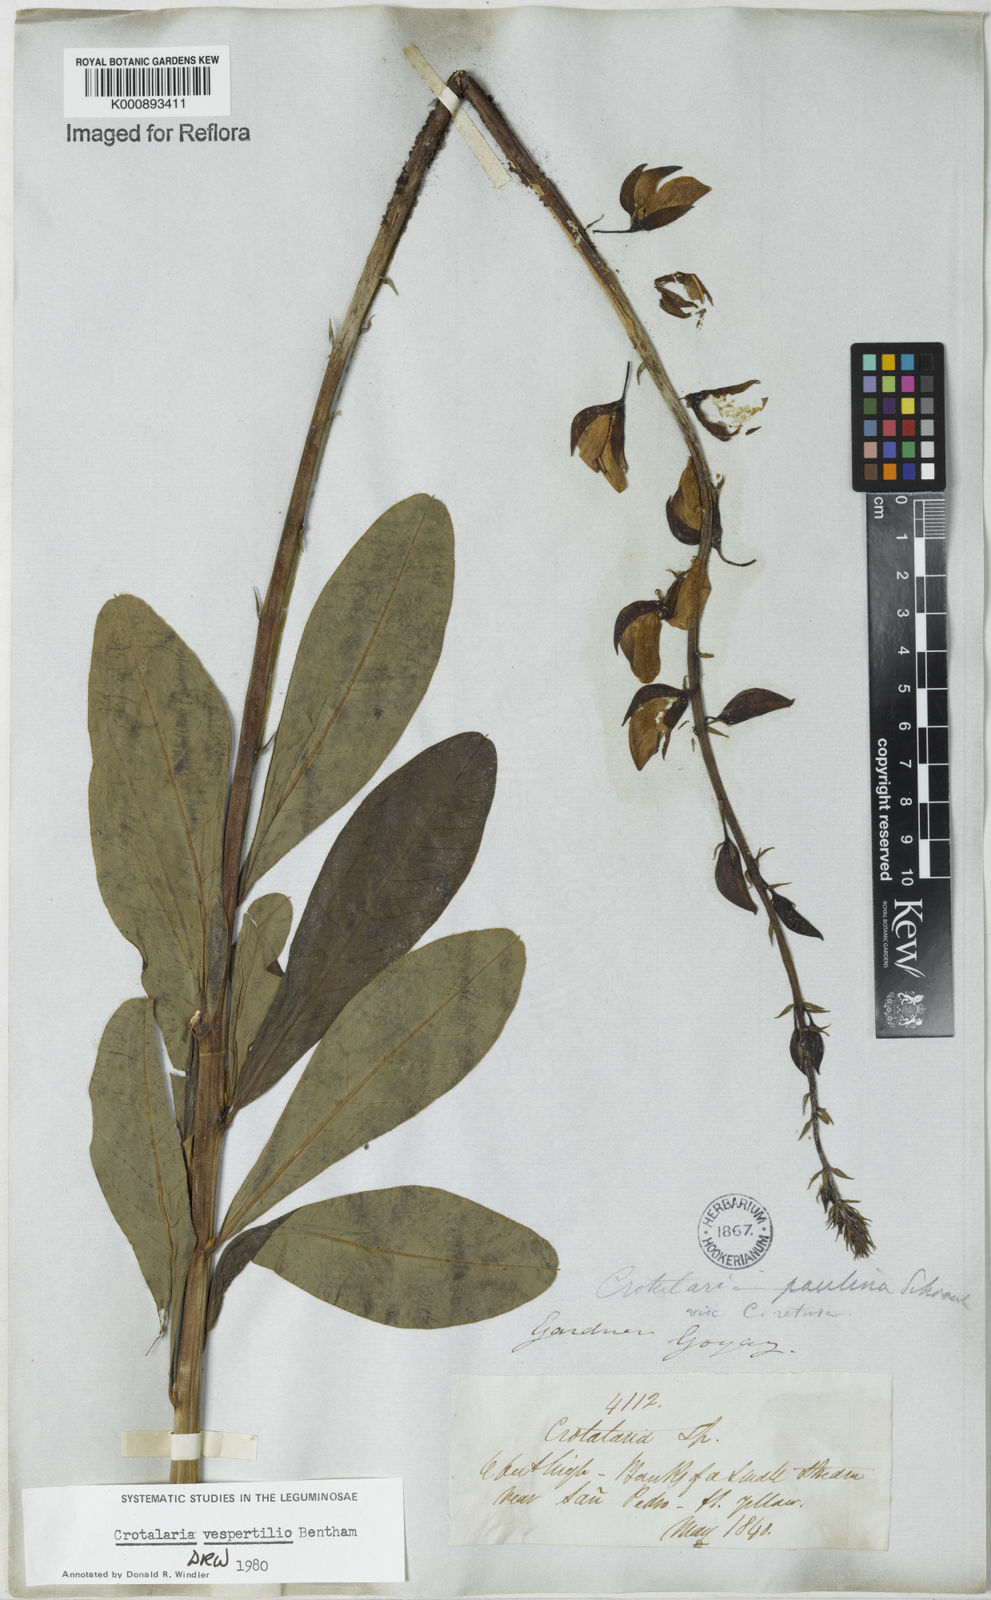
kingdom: Plantae
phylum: Tracheophyta
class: Magnoliopsida
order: Fabales
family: Fabaceae
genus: Crotalaria
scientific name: Crotalaria vespertilio
